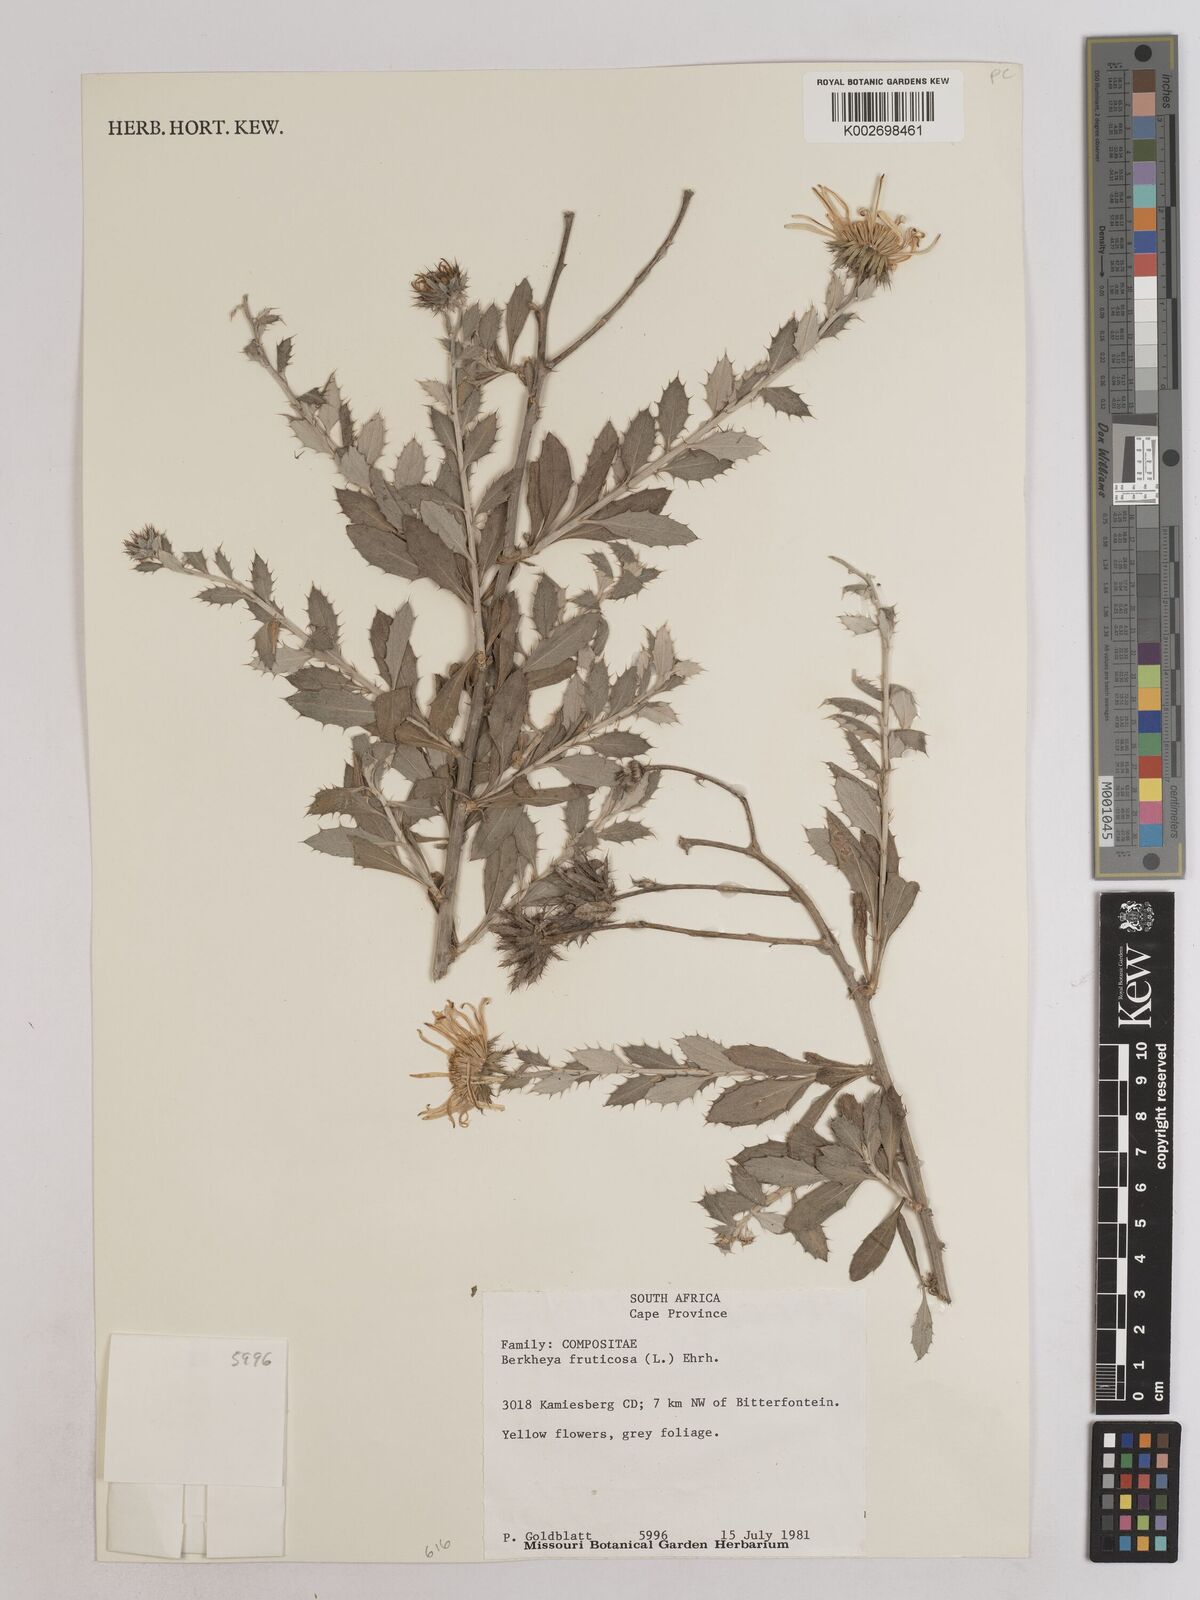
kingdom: Plantae
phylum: Tracheophyta
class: Magnoliopsida
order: Asterales
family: Asteraceae
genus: Berkheya
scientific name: Berkheya fruticosa
